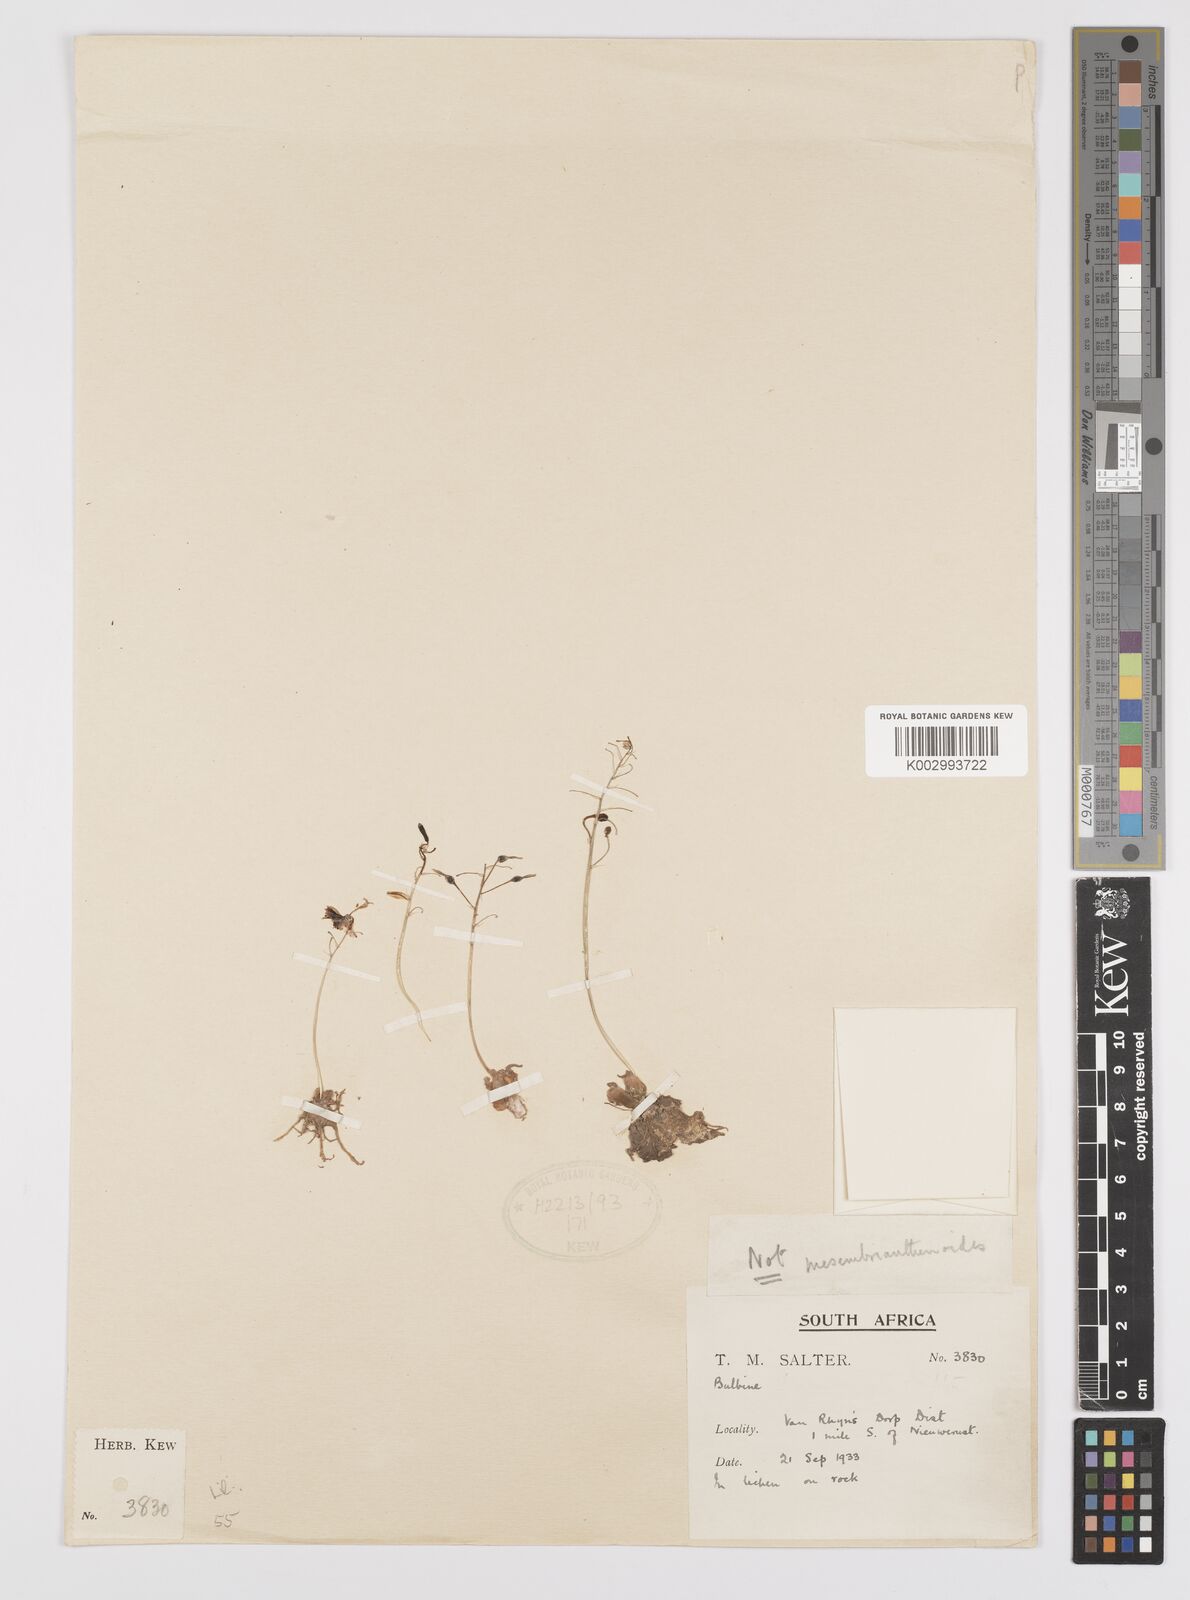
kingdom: Plantae
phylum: Tracheophyta
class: Liliopsida
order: Asparagales
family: Amaryllidaceae
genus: Crinum
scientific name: Crinum
